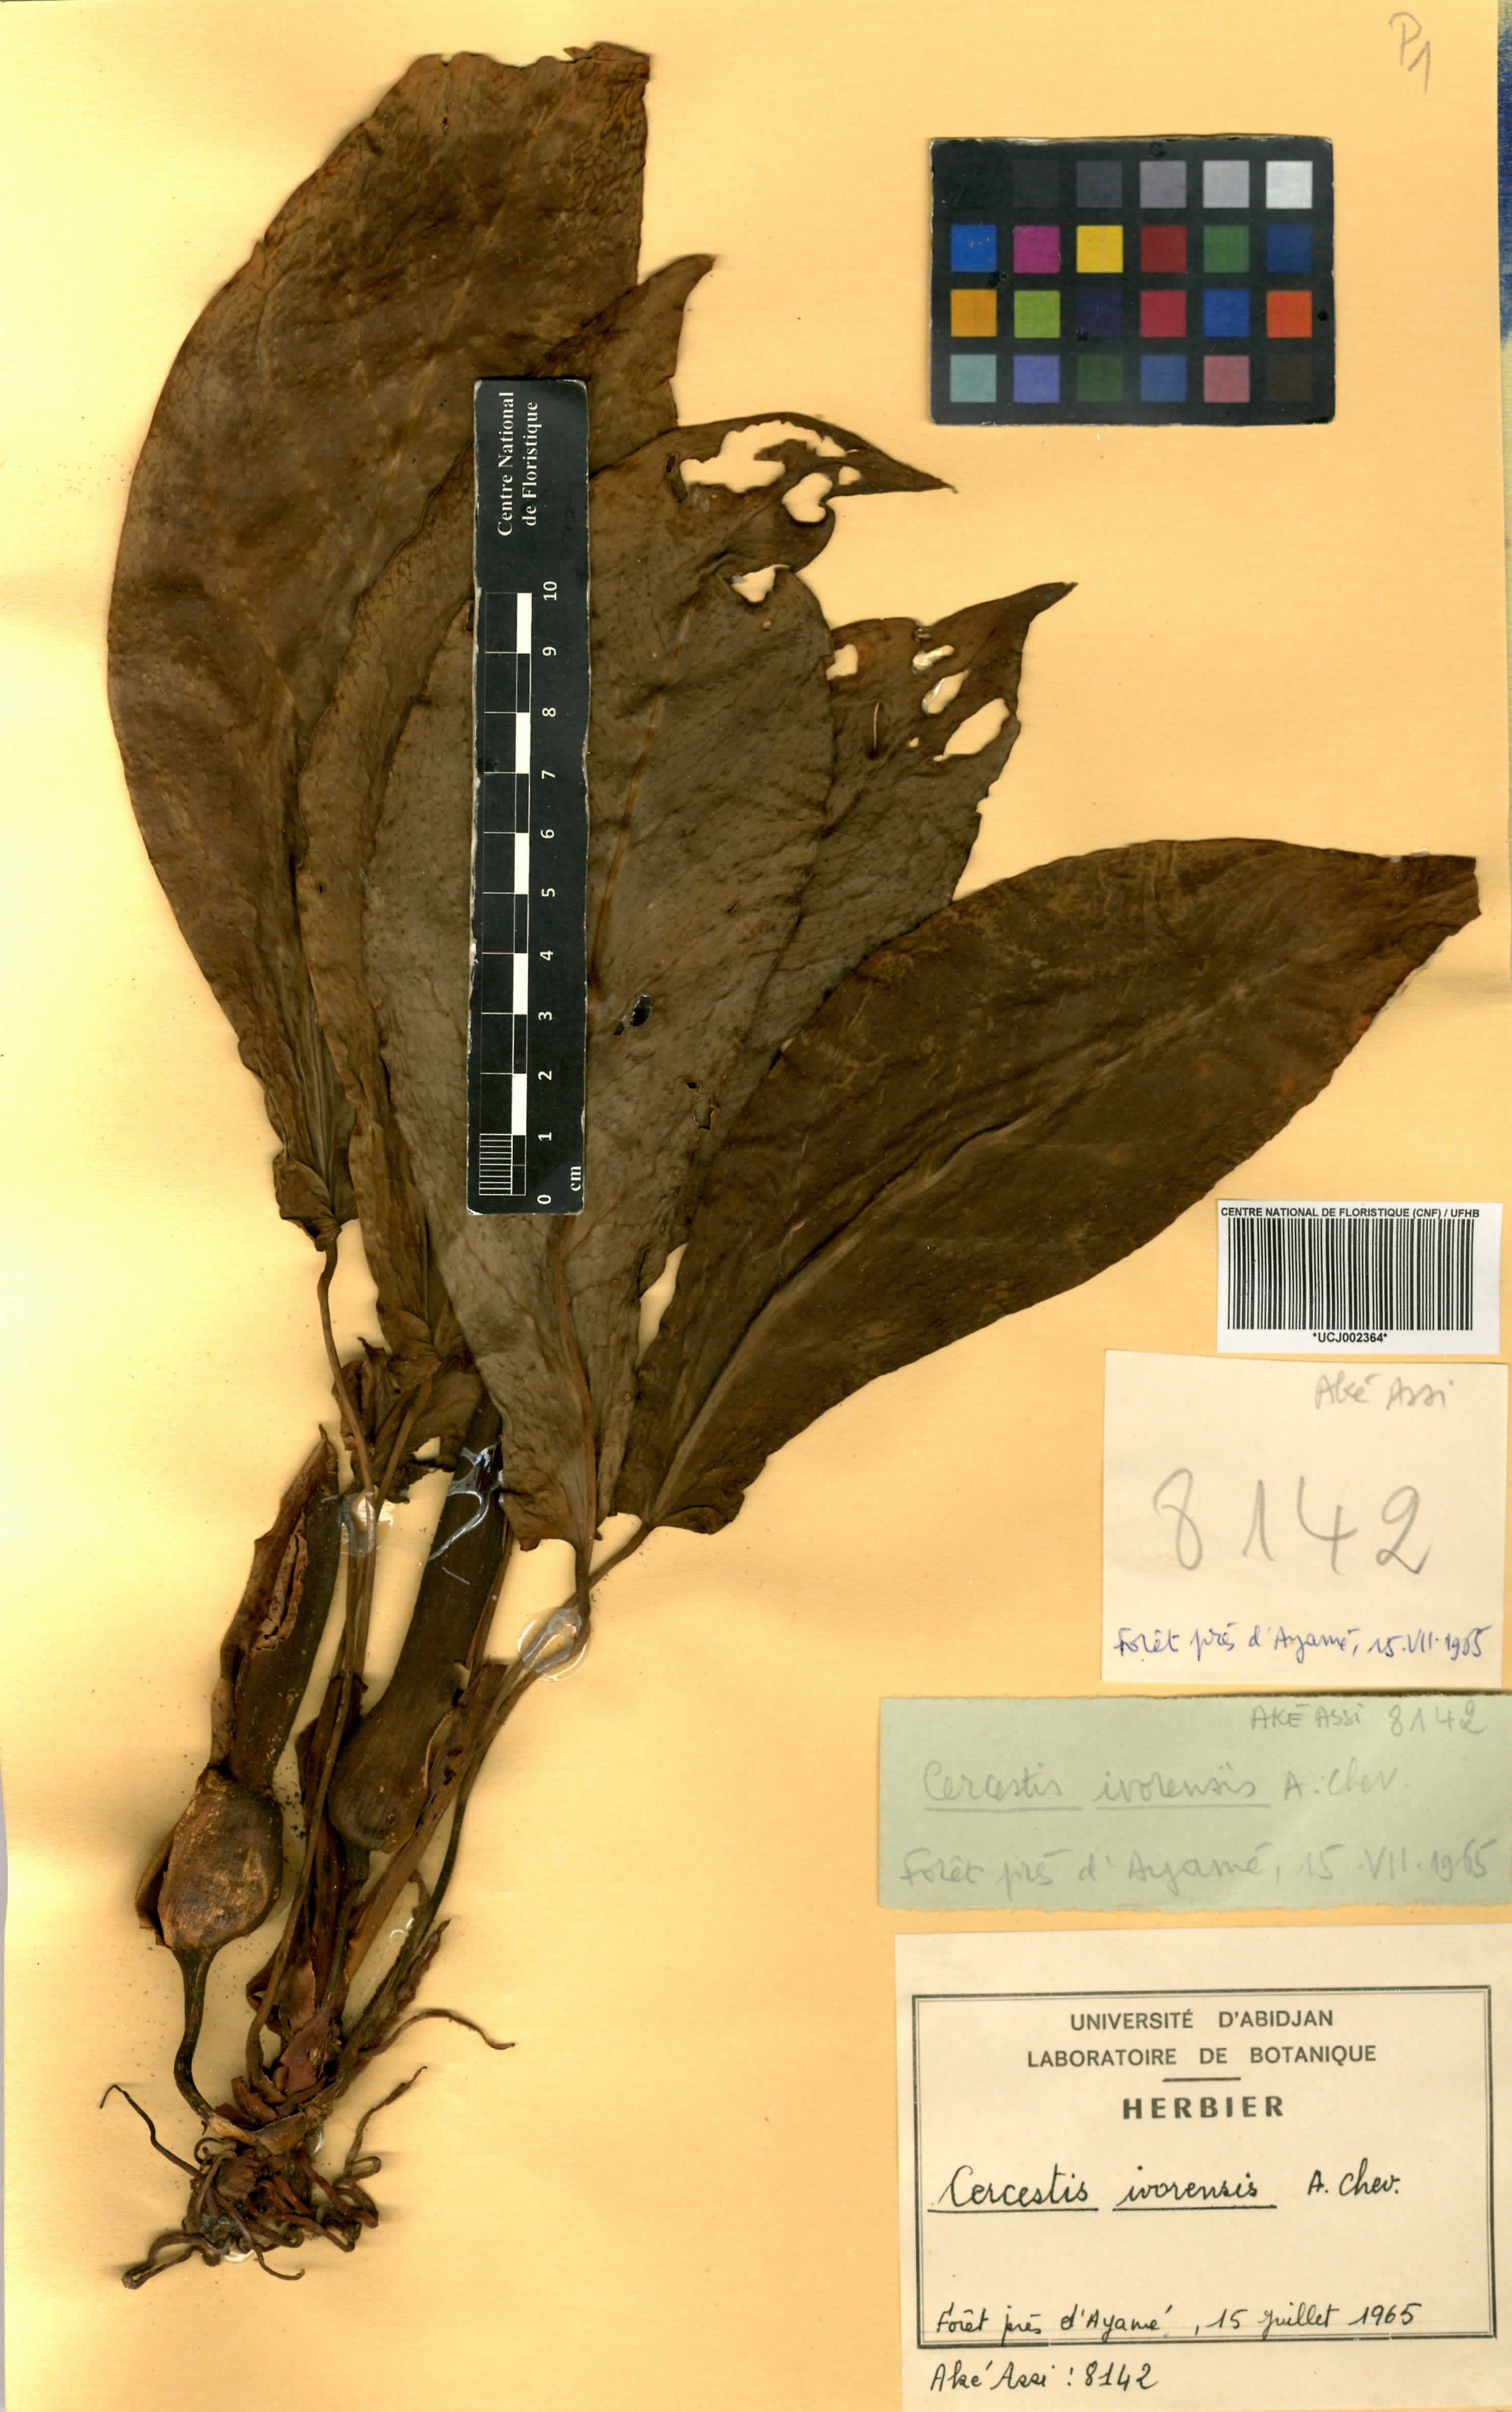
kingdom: Plantae
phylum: Tracheophyta
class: Liliopsida
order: Alismatales
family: Araceae
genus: Cercestis
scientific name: Cercestis ivorensis
